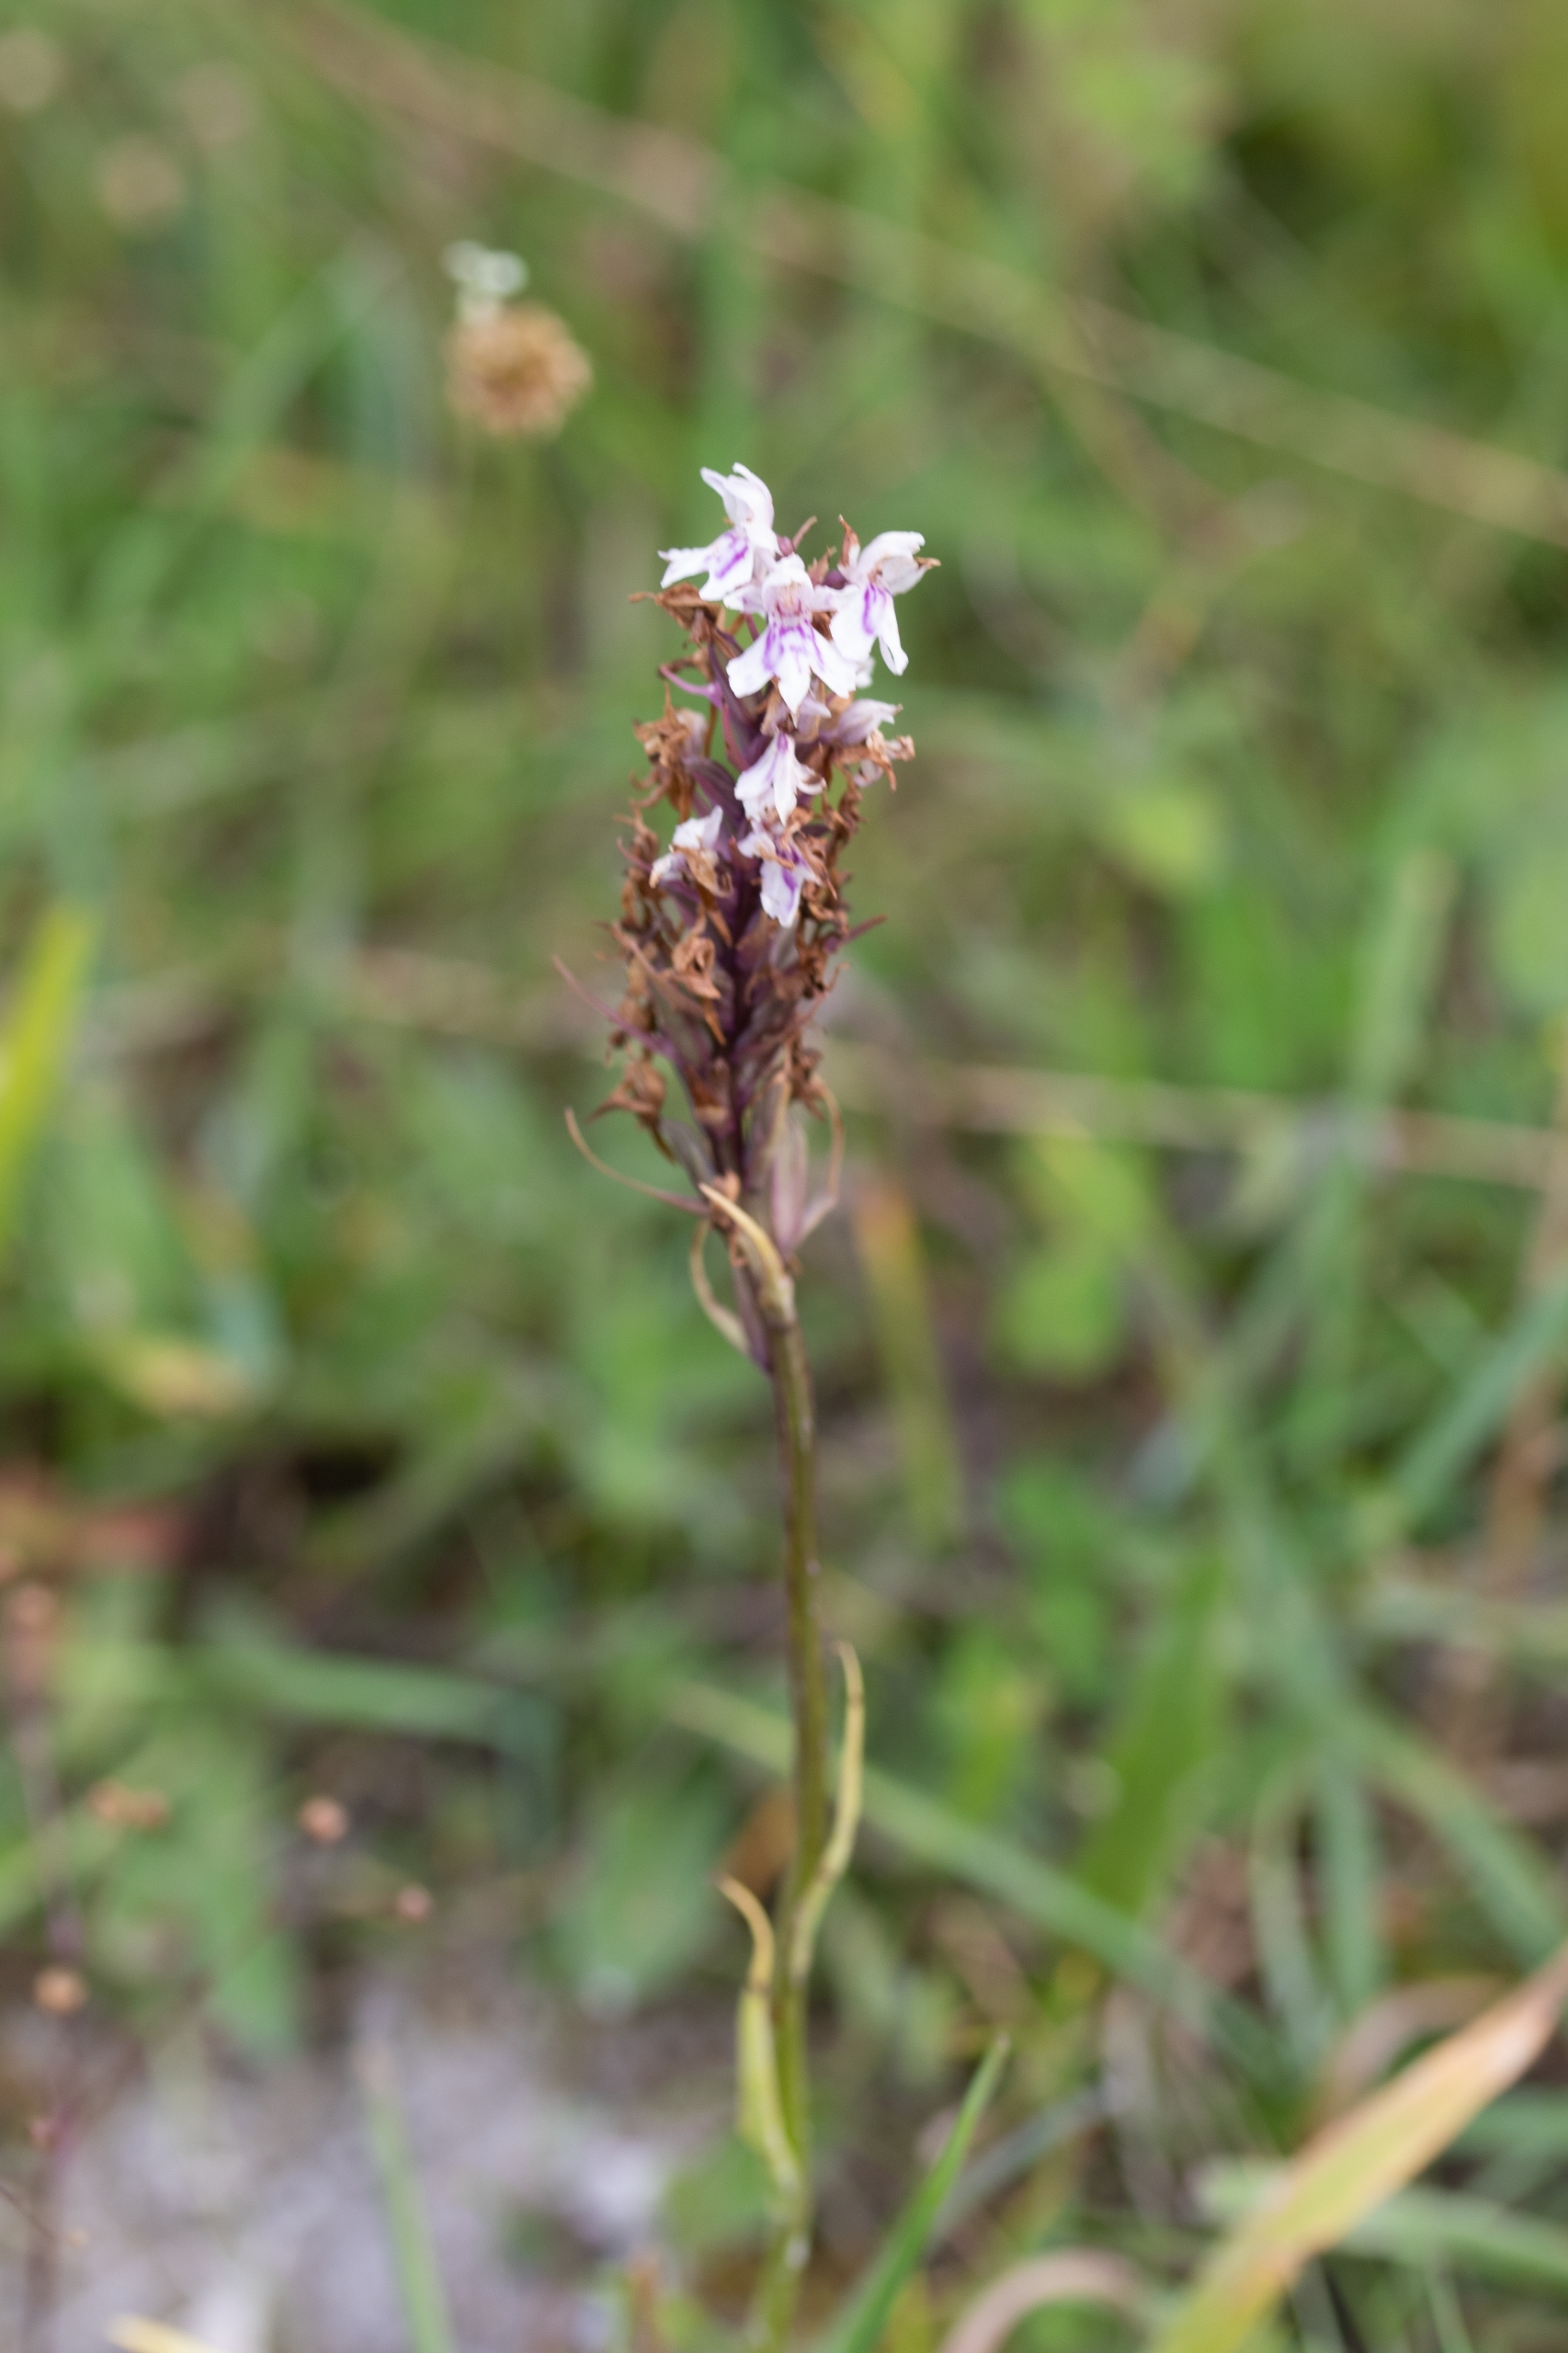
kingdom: Plantae
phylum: Tracheophyta
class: Liliopsida
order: Asparagales
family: Orchidaceae
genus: Dactylorhiza
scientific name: Dactylorhiza maculata
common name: Skov-gøgeurt
